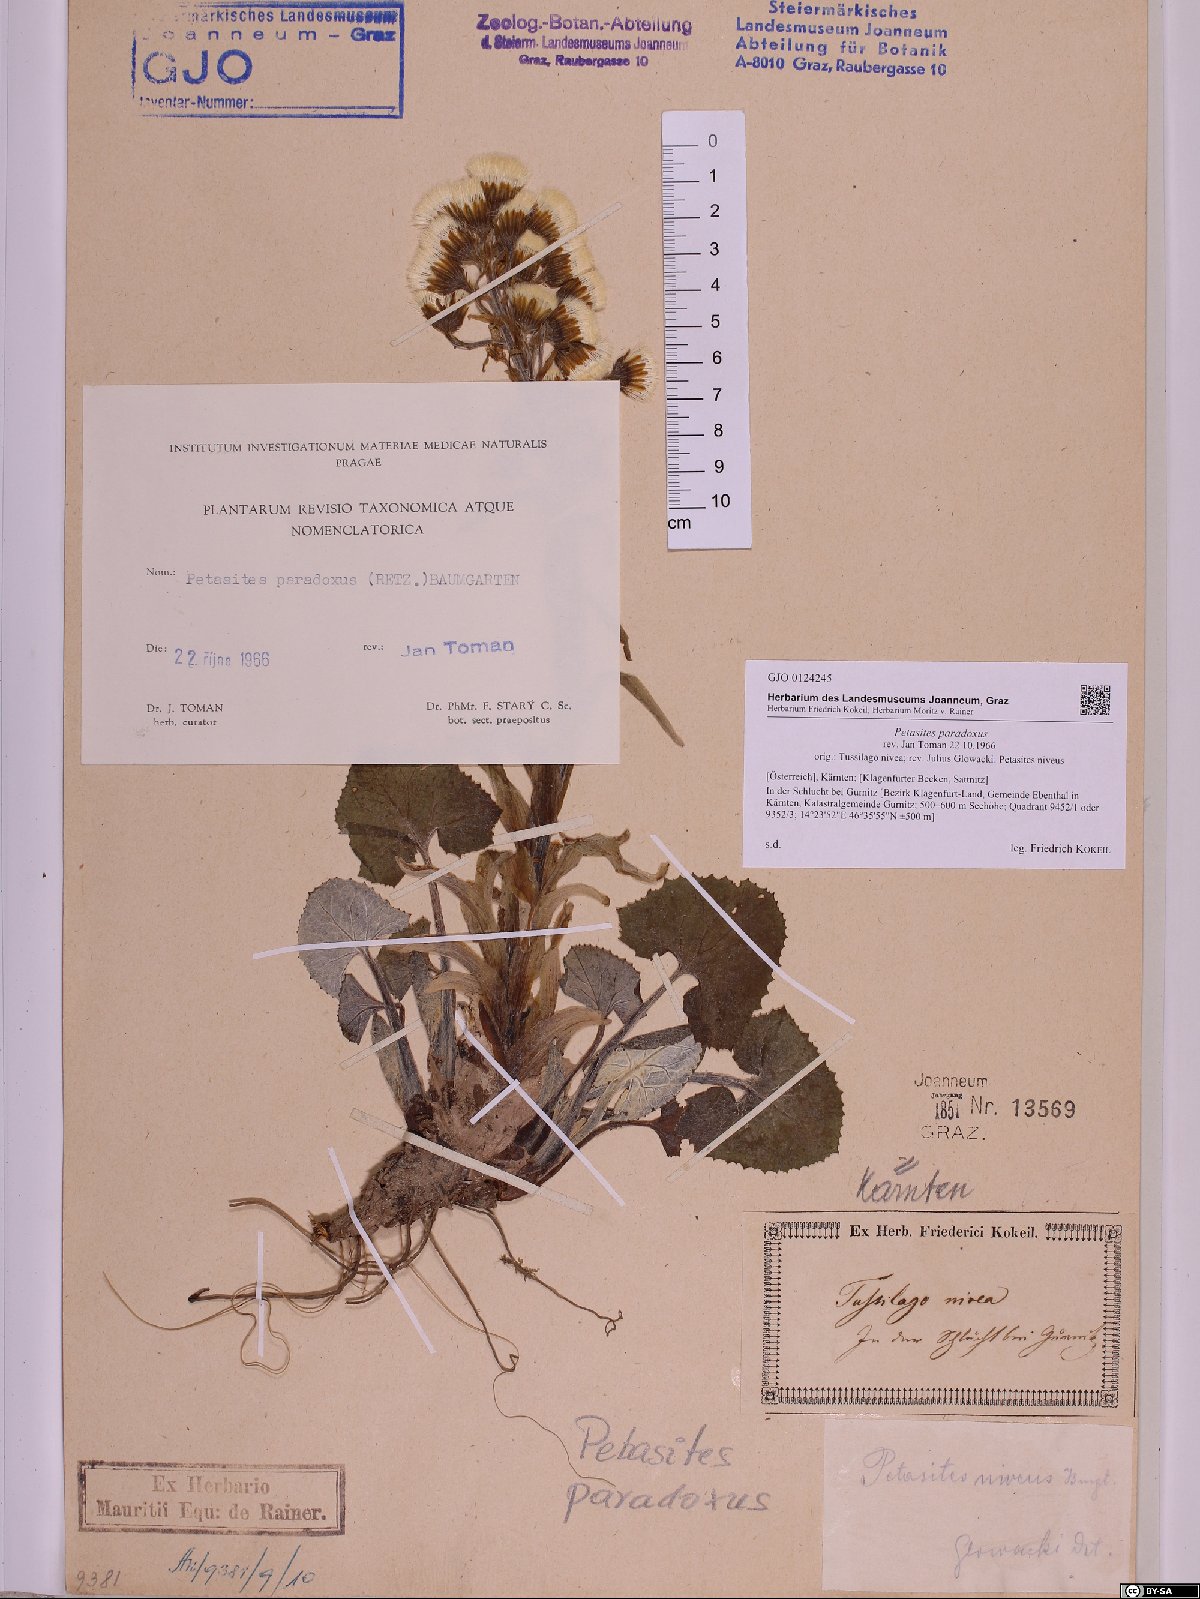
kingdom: Plantae
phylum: Tracheophyta
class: Magnoliopsida
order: Asterales
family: Asteraceae
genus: Petasites
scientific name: Petasites paradoxus
